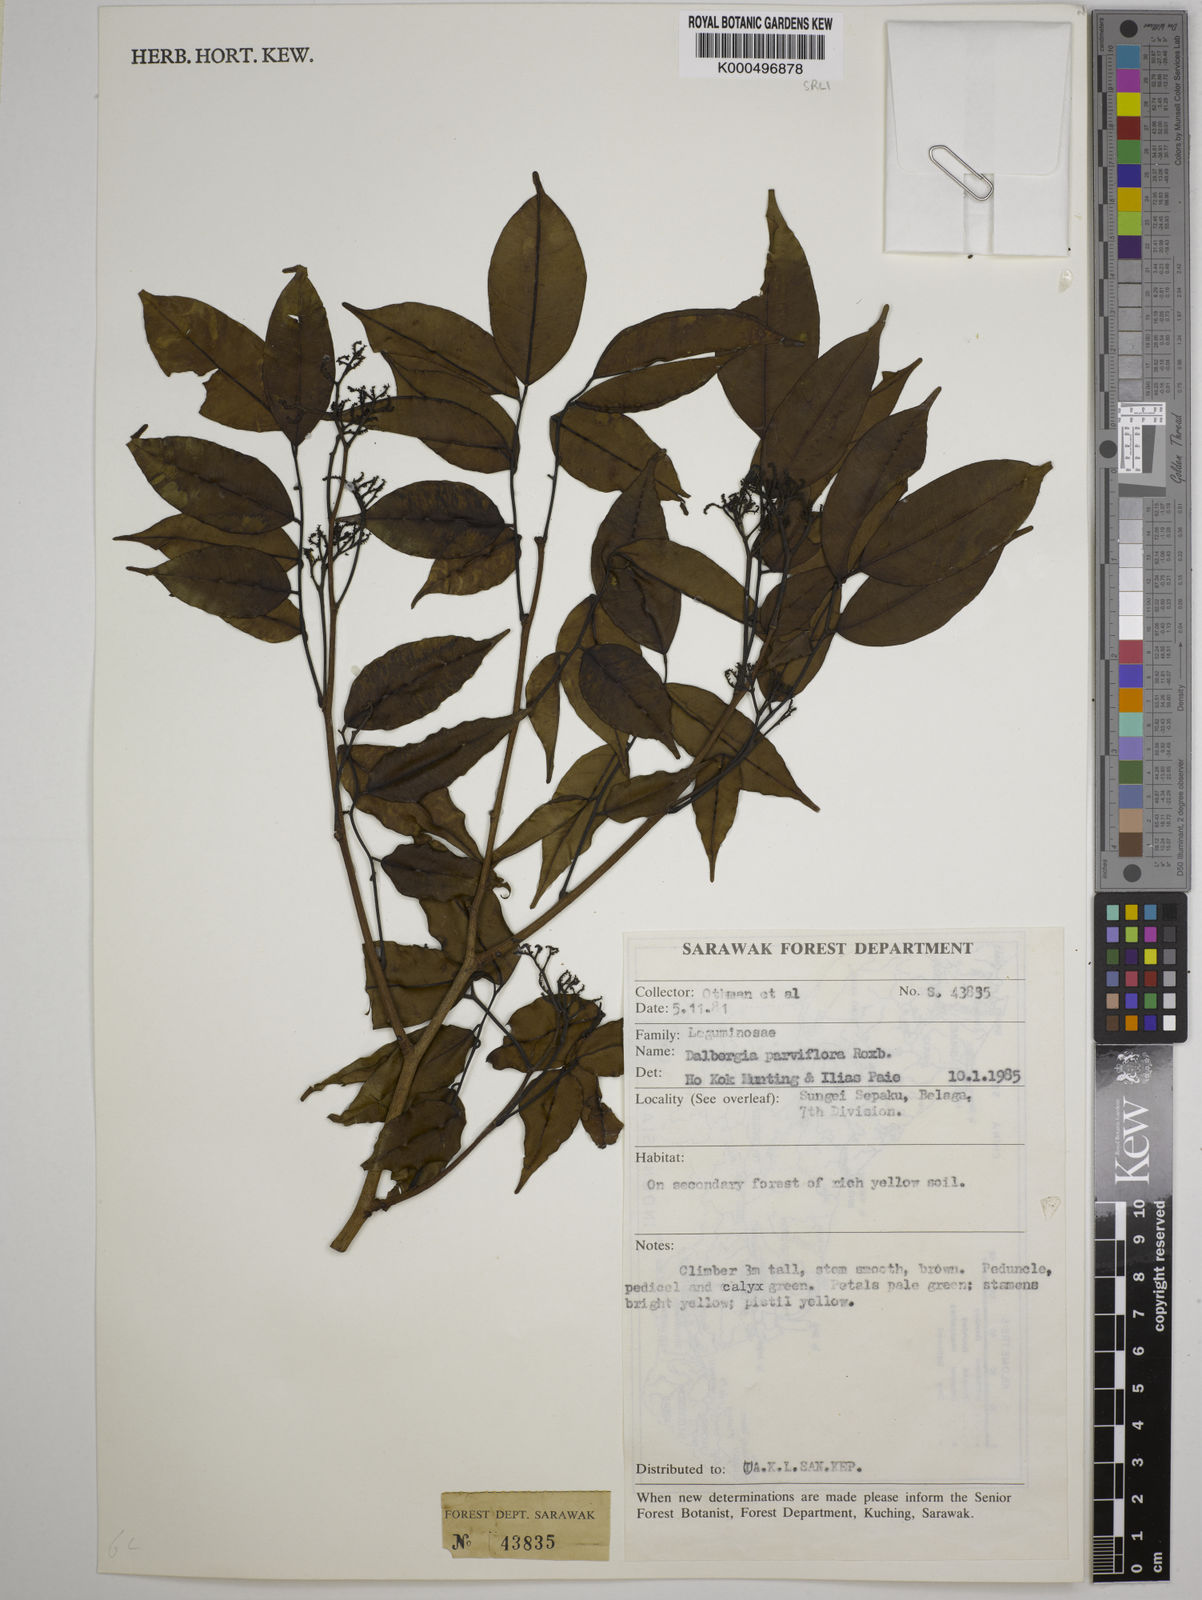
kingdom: Plantae
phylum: Tracheophyta
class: Magnoliopsida
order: Fabales
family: Fabaceae
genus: Dalbergia
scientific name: Dalbergia parviflora
